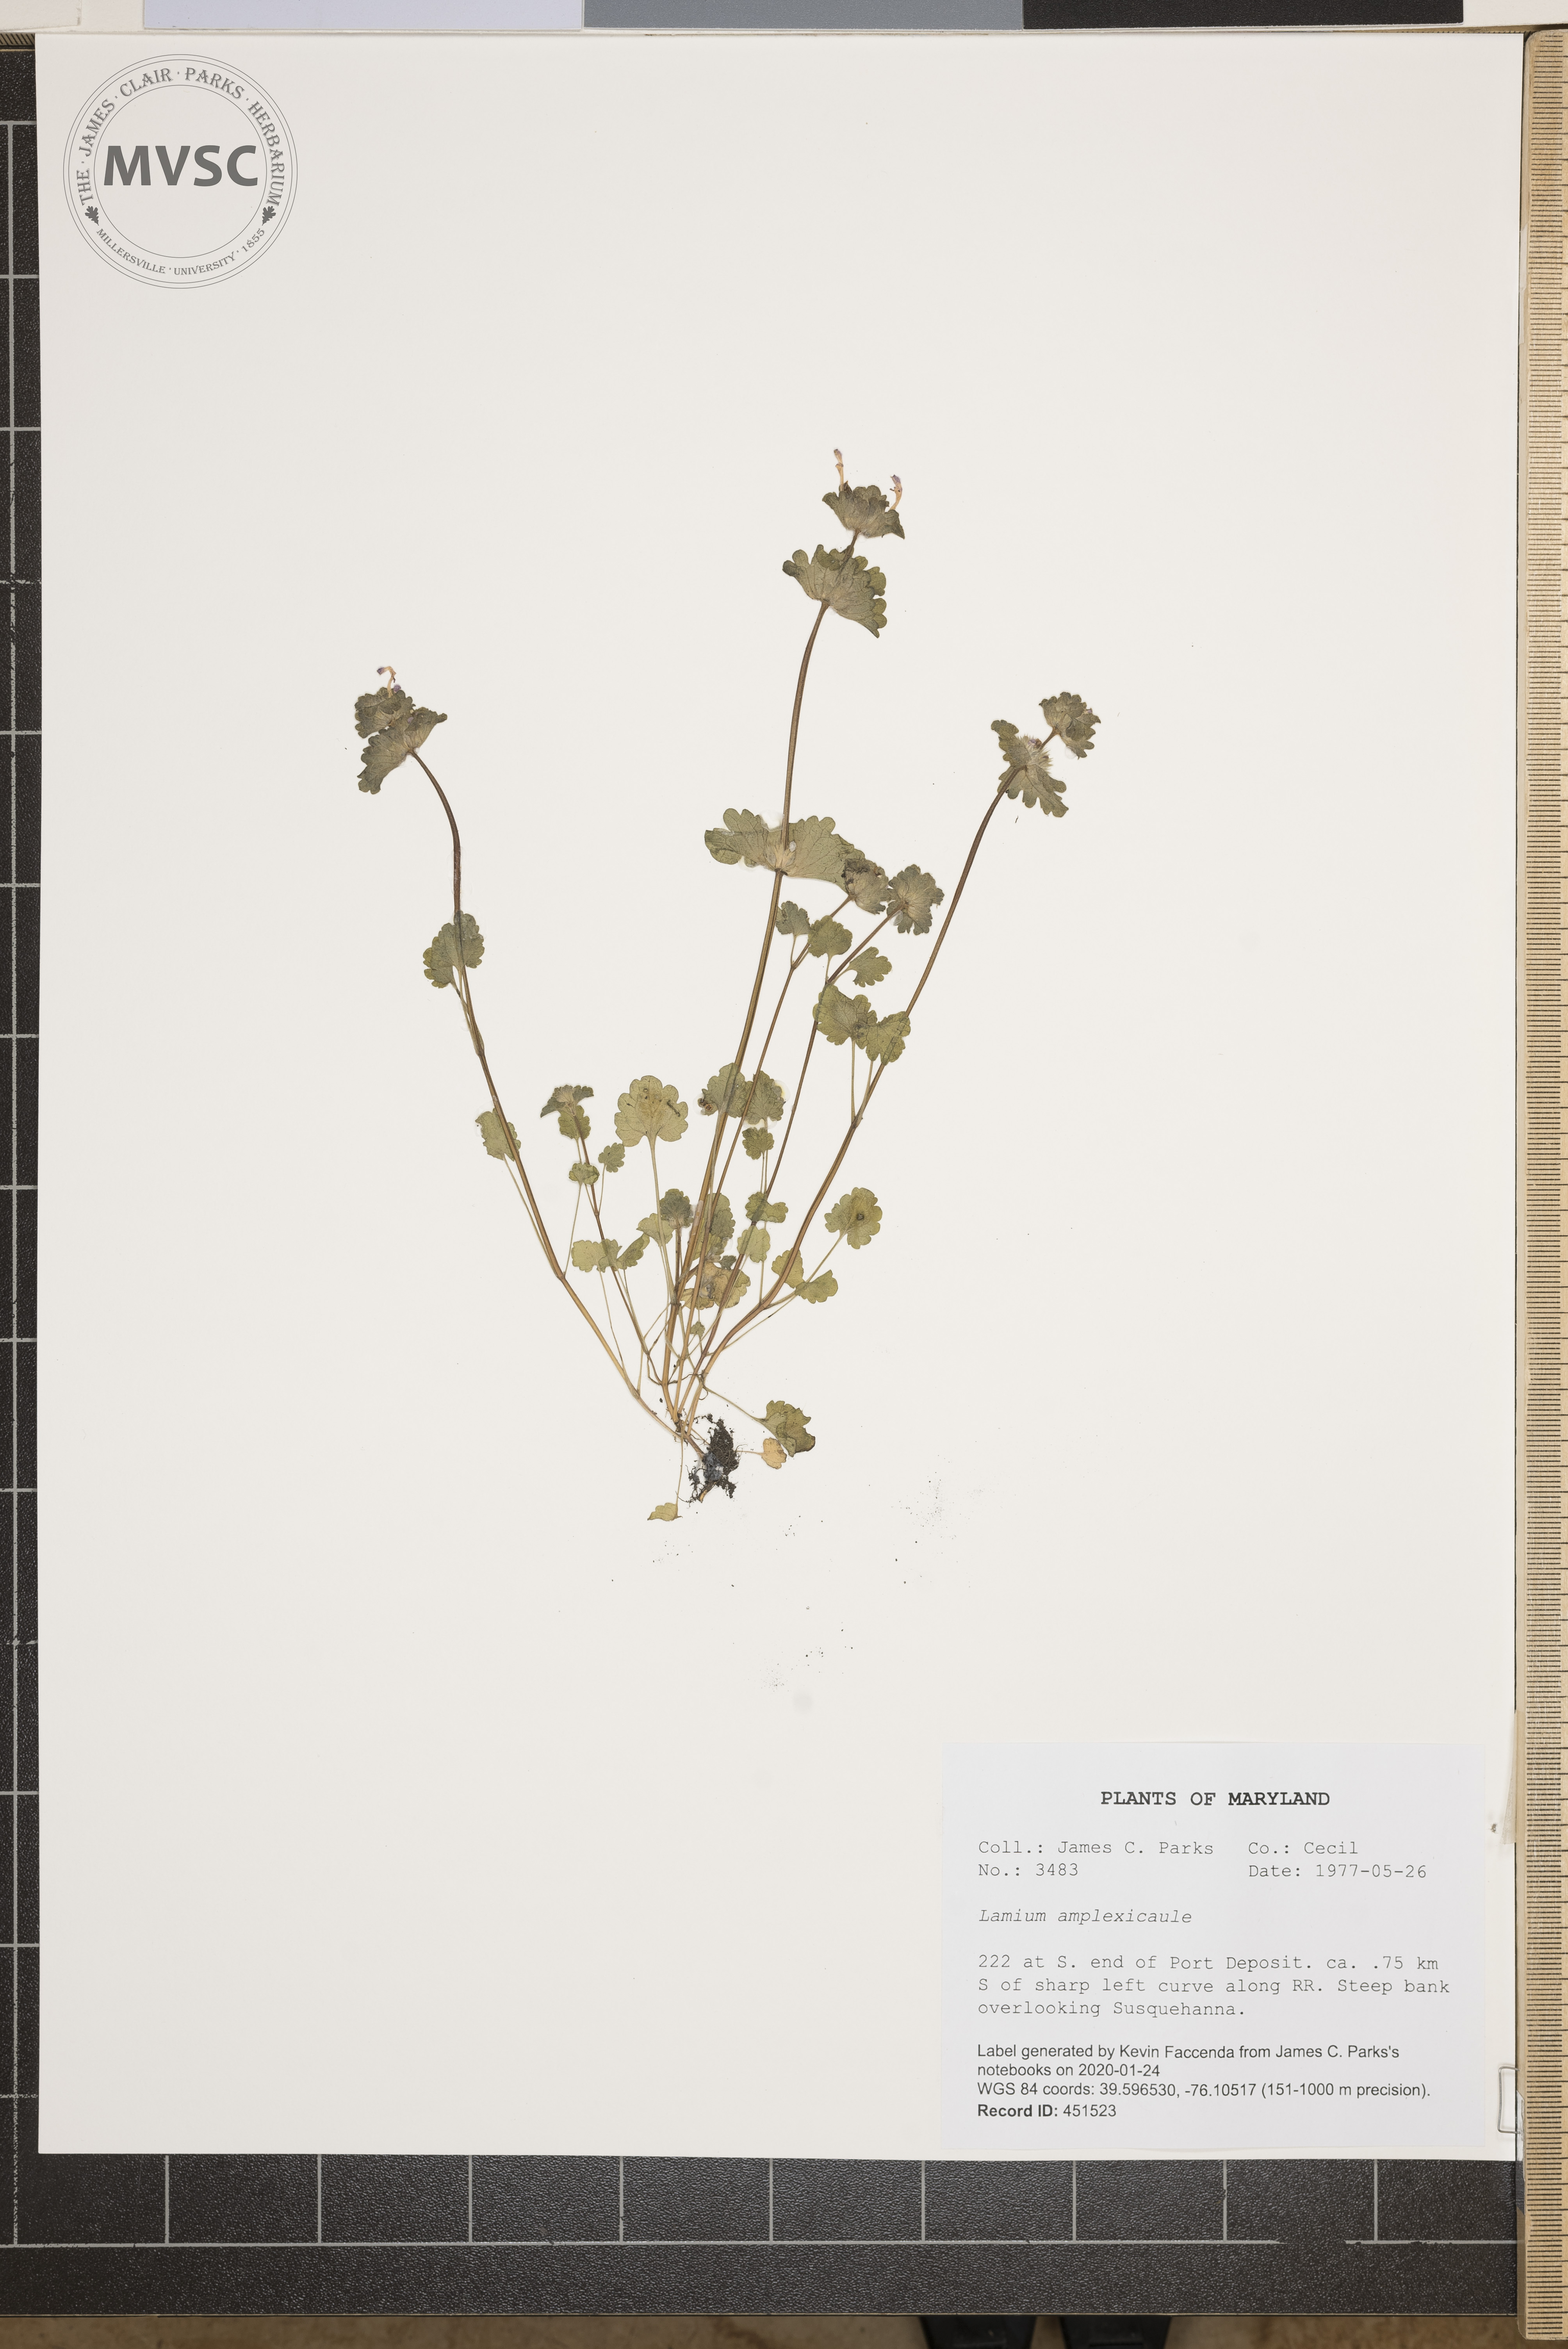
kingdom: Plantae
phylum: Tracheophyta
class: Magnoliopsida
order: Lamiales
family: Lamiaceae
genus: Lamium
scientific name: Lamium amplexicaule
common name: Henbit dead-nettle
